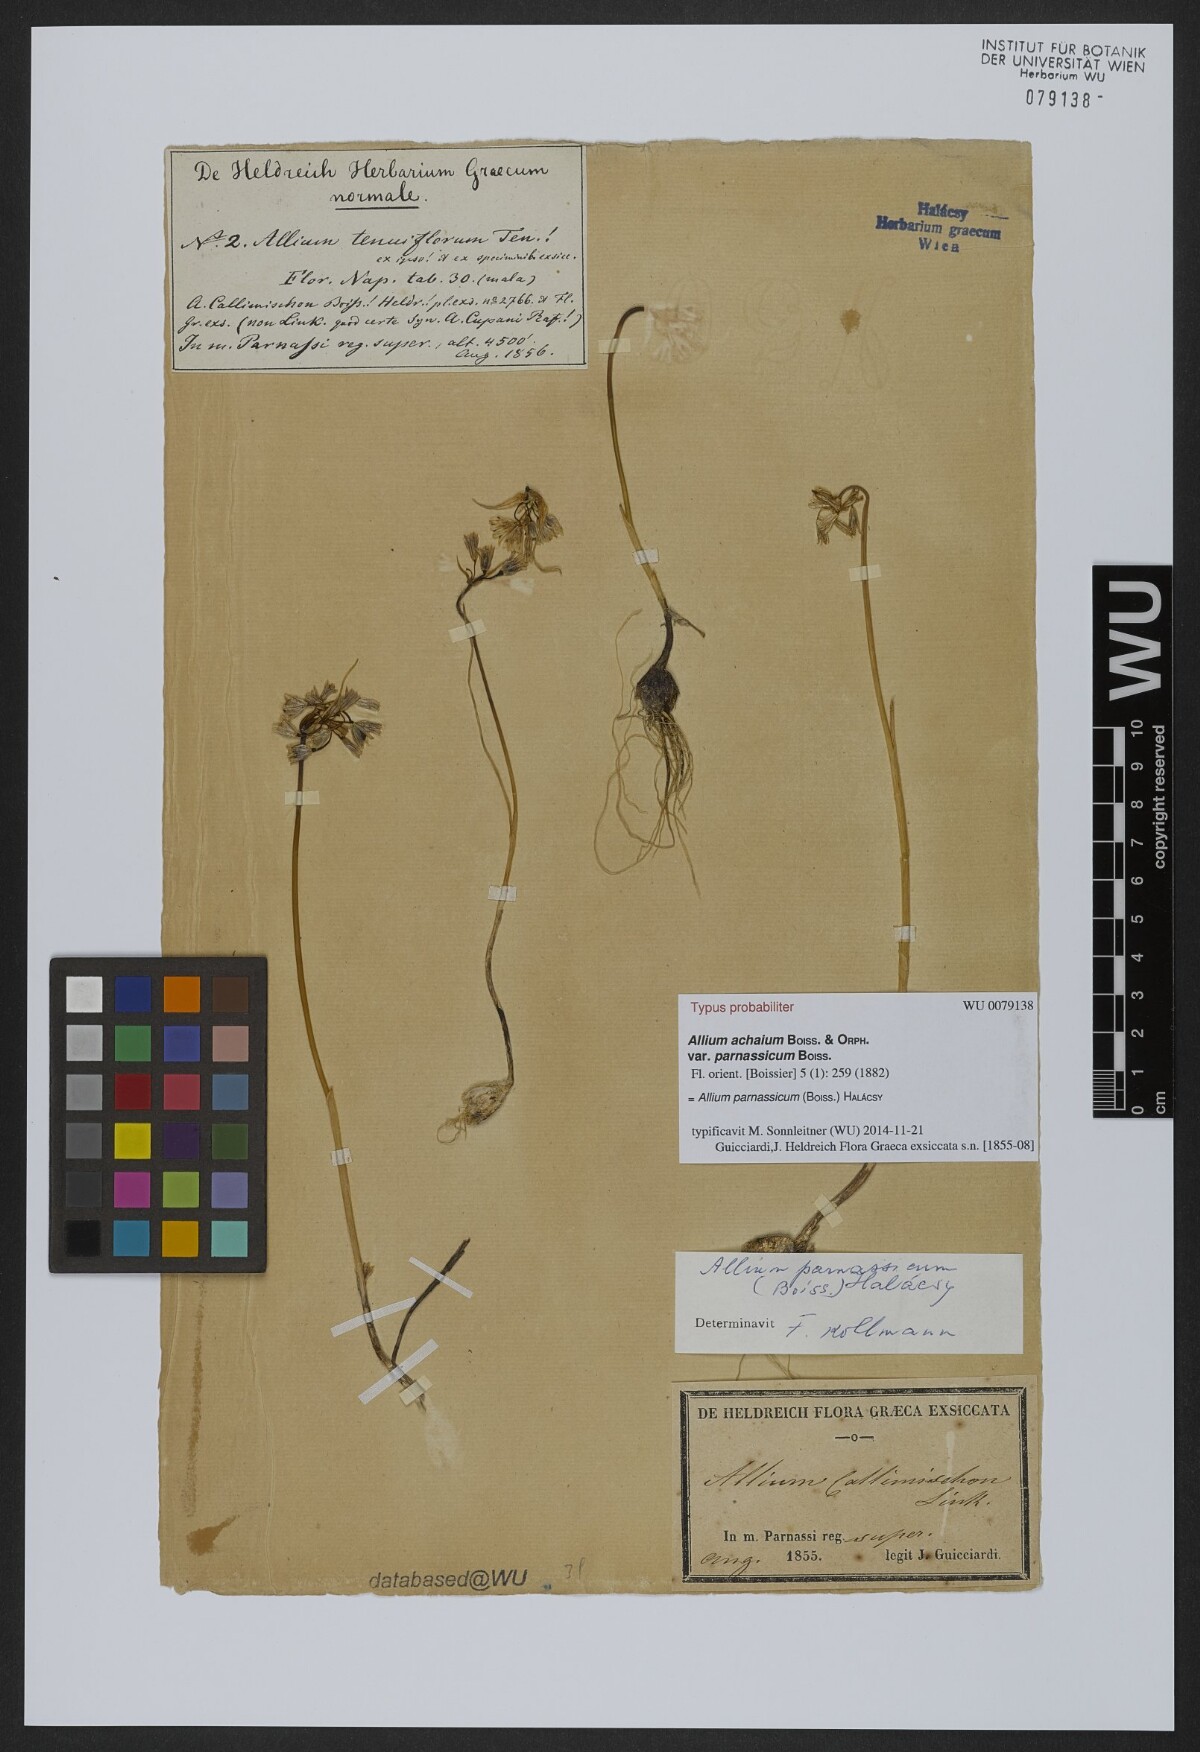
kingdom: Plantae
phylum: Tracheophyta
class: Liliopsida
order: Asparagales
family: Amaryllidaceae
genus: Allium
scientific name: Allium parnassicum
